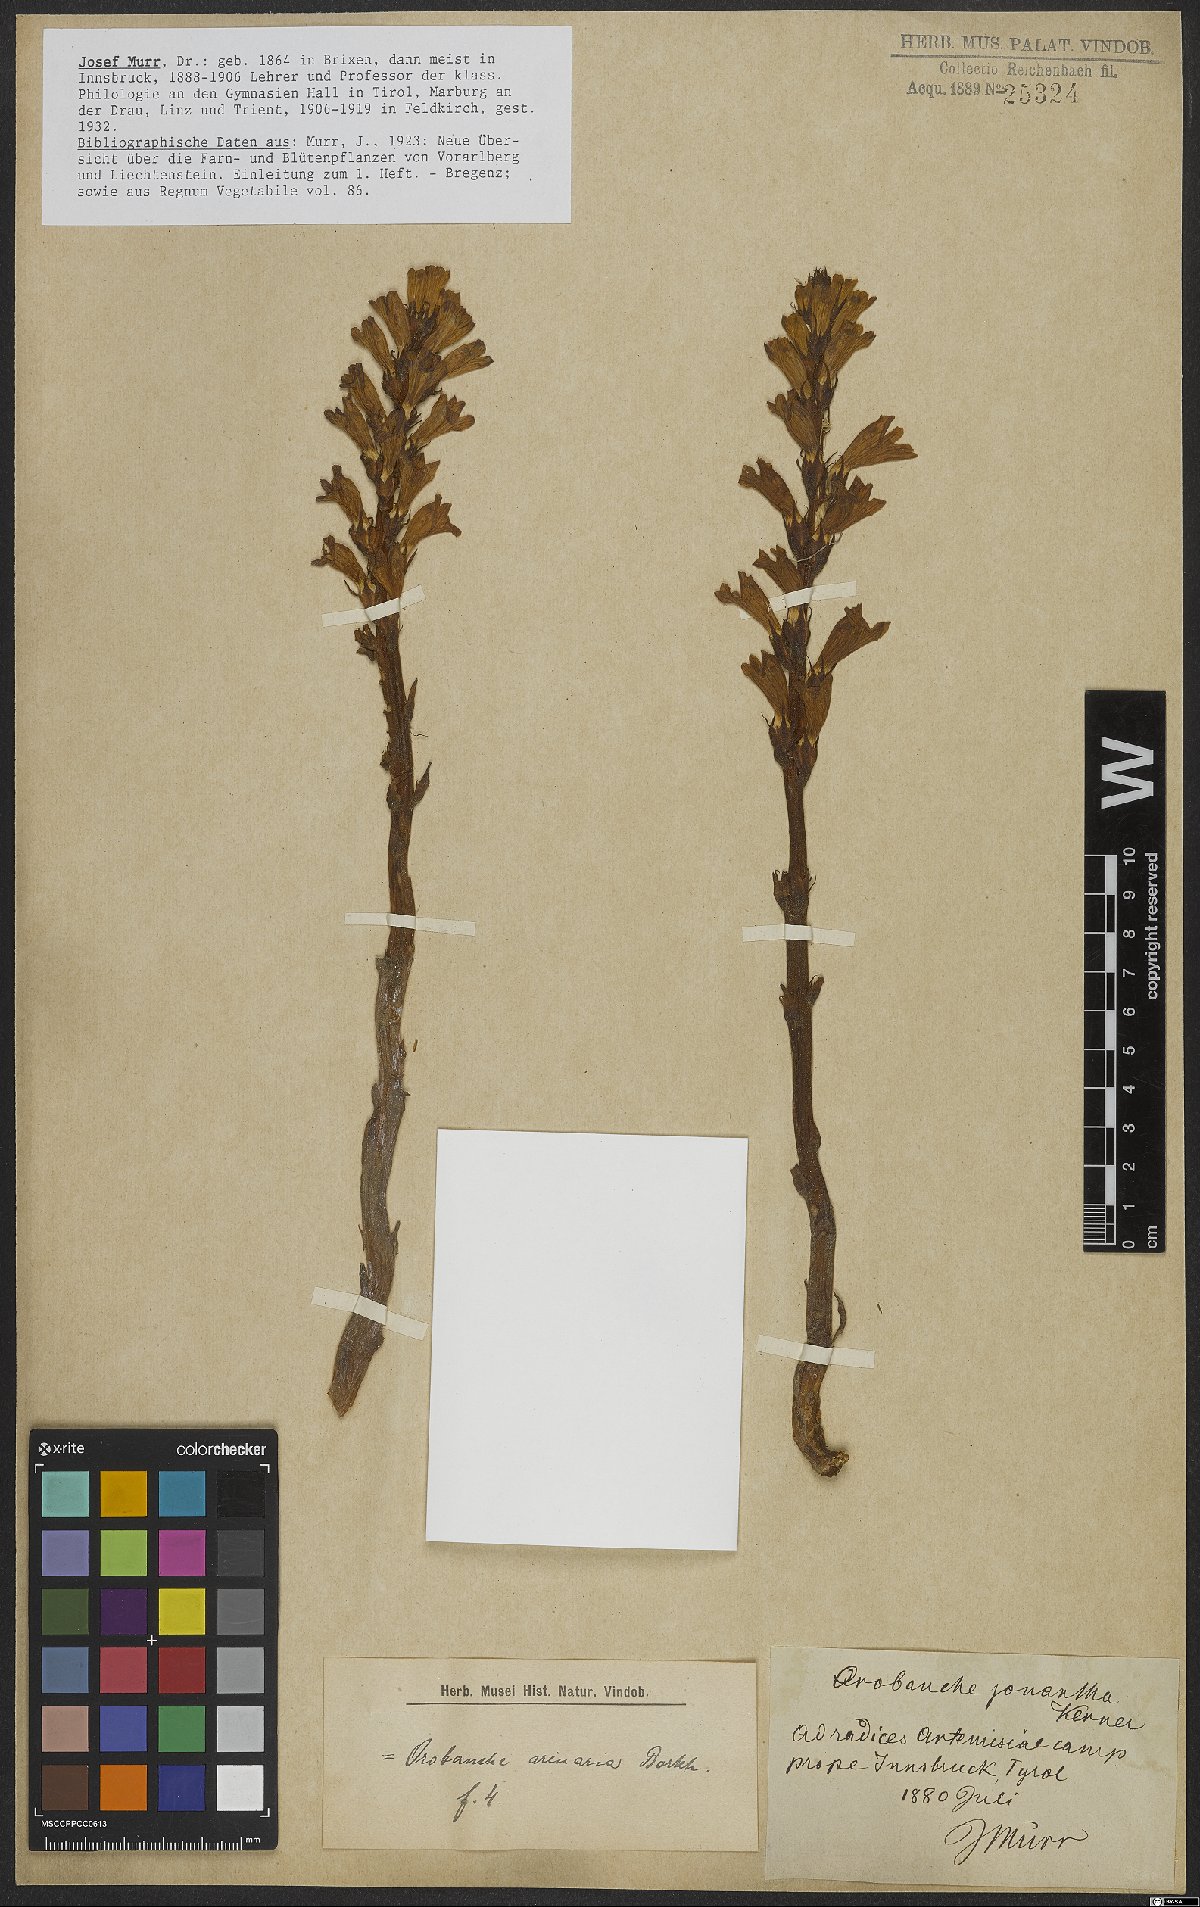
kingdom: Plantae
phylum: Tracheophyta
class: Magnoliopsida
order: Lamiales
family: Orobanchaceae
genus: Phelipanche
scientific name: Phelipanche arenaria
